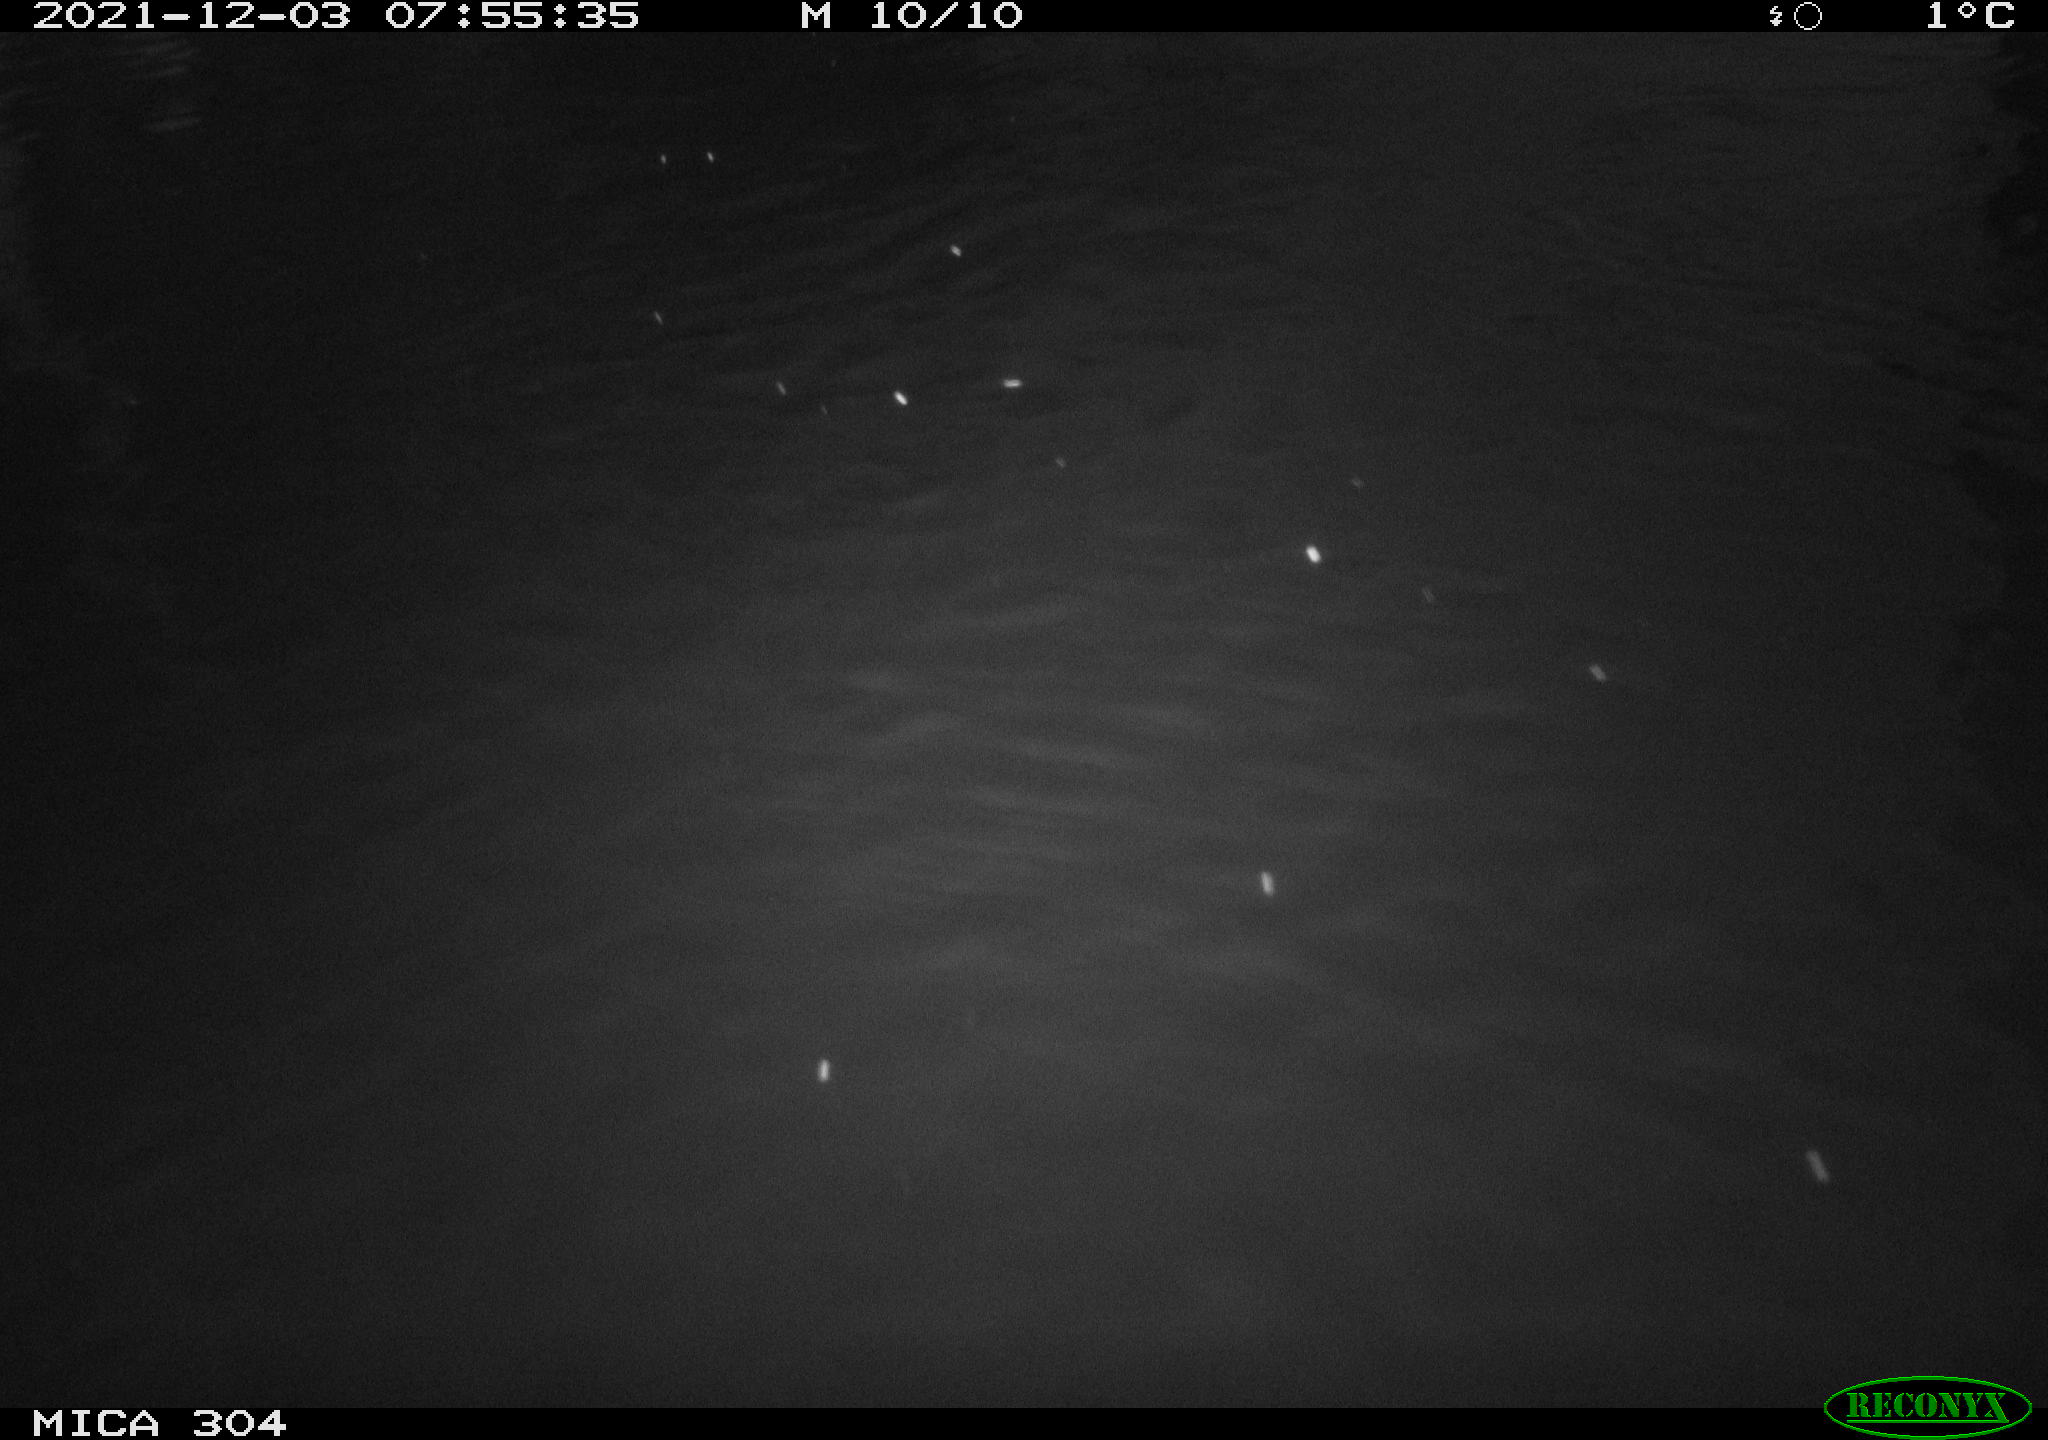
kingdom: Animalia
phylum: Chordata
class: Aves
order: Gruiformes
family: Rallidae
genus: Fulica
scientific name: Fulica atra
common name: Eurasian coot
